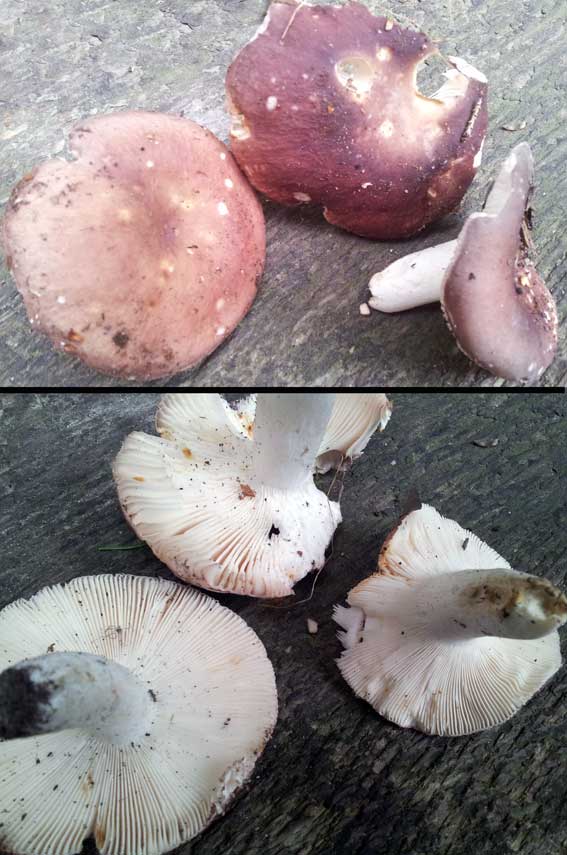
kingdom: Fungi
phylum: Basidiomycota
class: Agaricomycetes
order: Russulales
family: Russulaceae
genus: Russula
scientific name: Russula vesca
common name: spiselig skørhat
